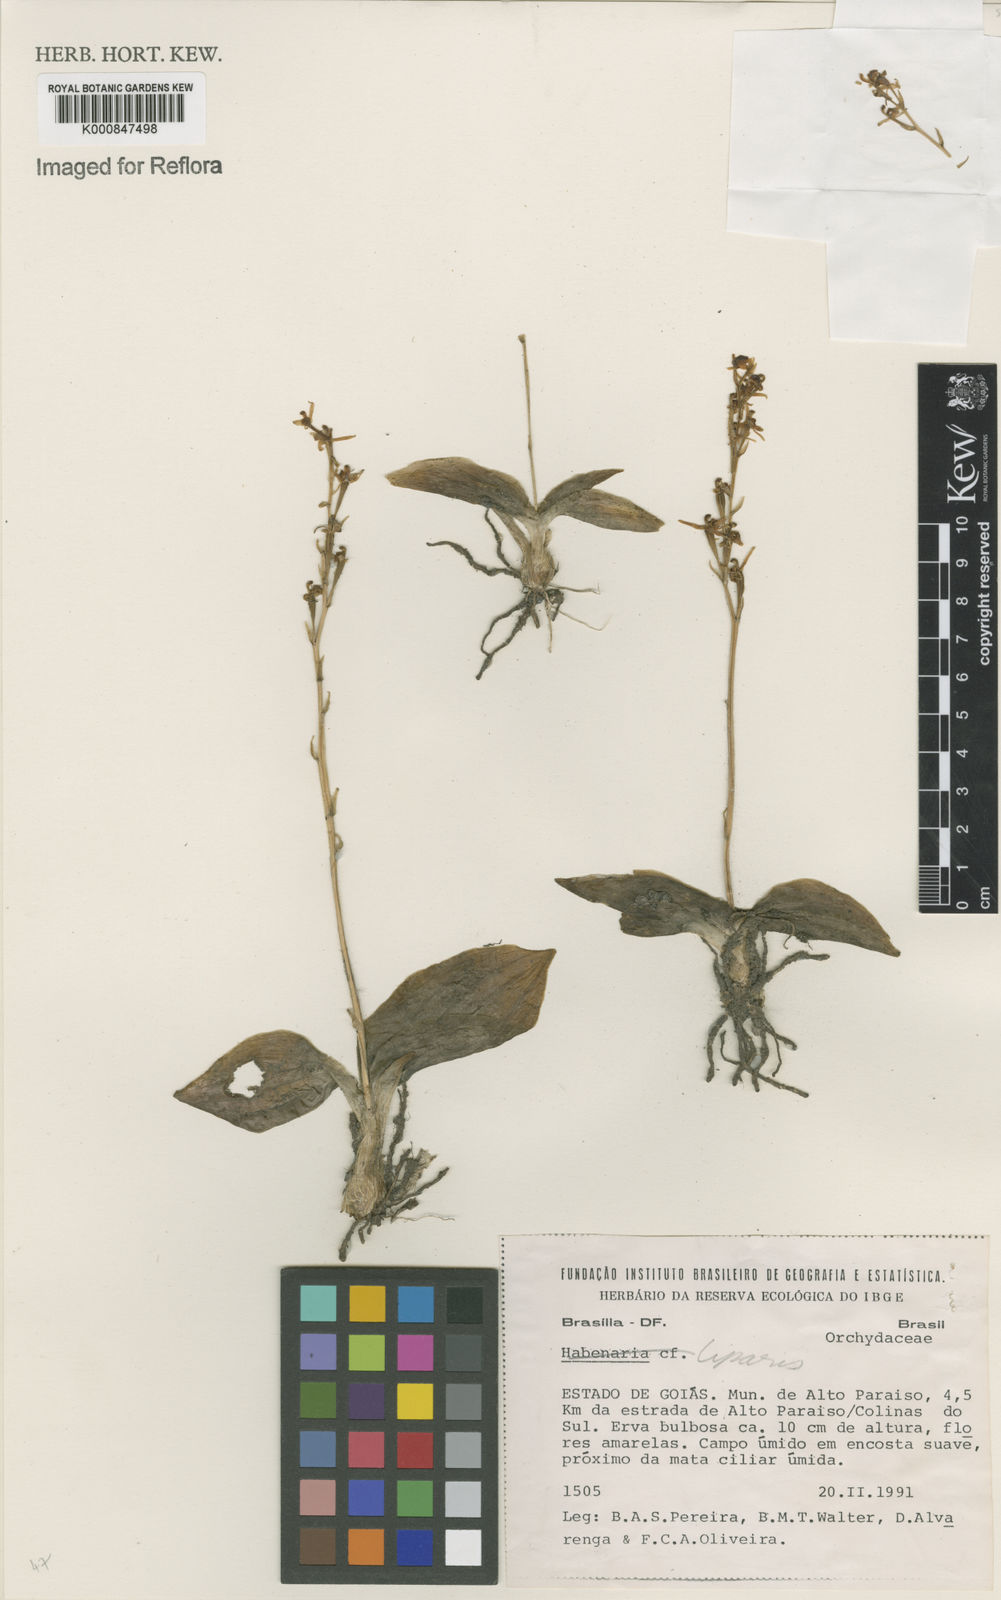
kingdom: Plantae
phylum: Tracheophyta
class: Liliopsida
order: Asparagales
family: Orchidaceae
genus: Liparis
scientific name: Liparis
